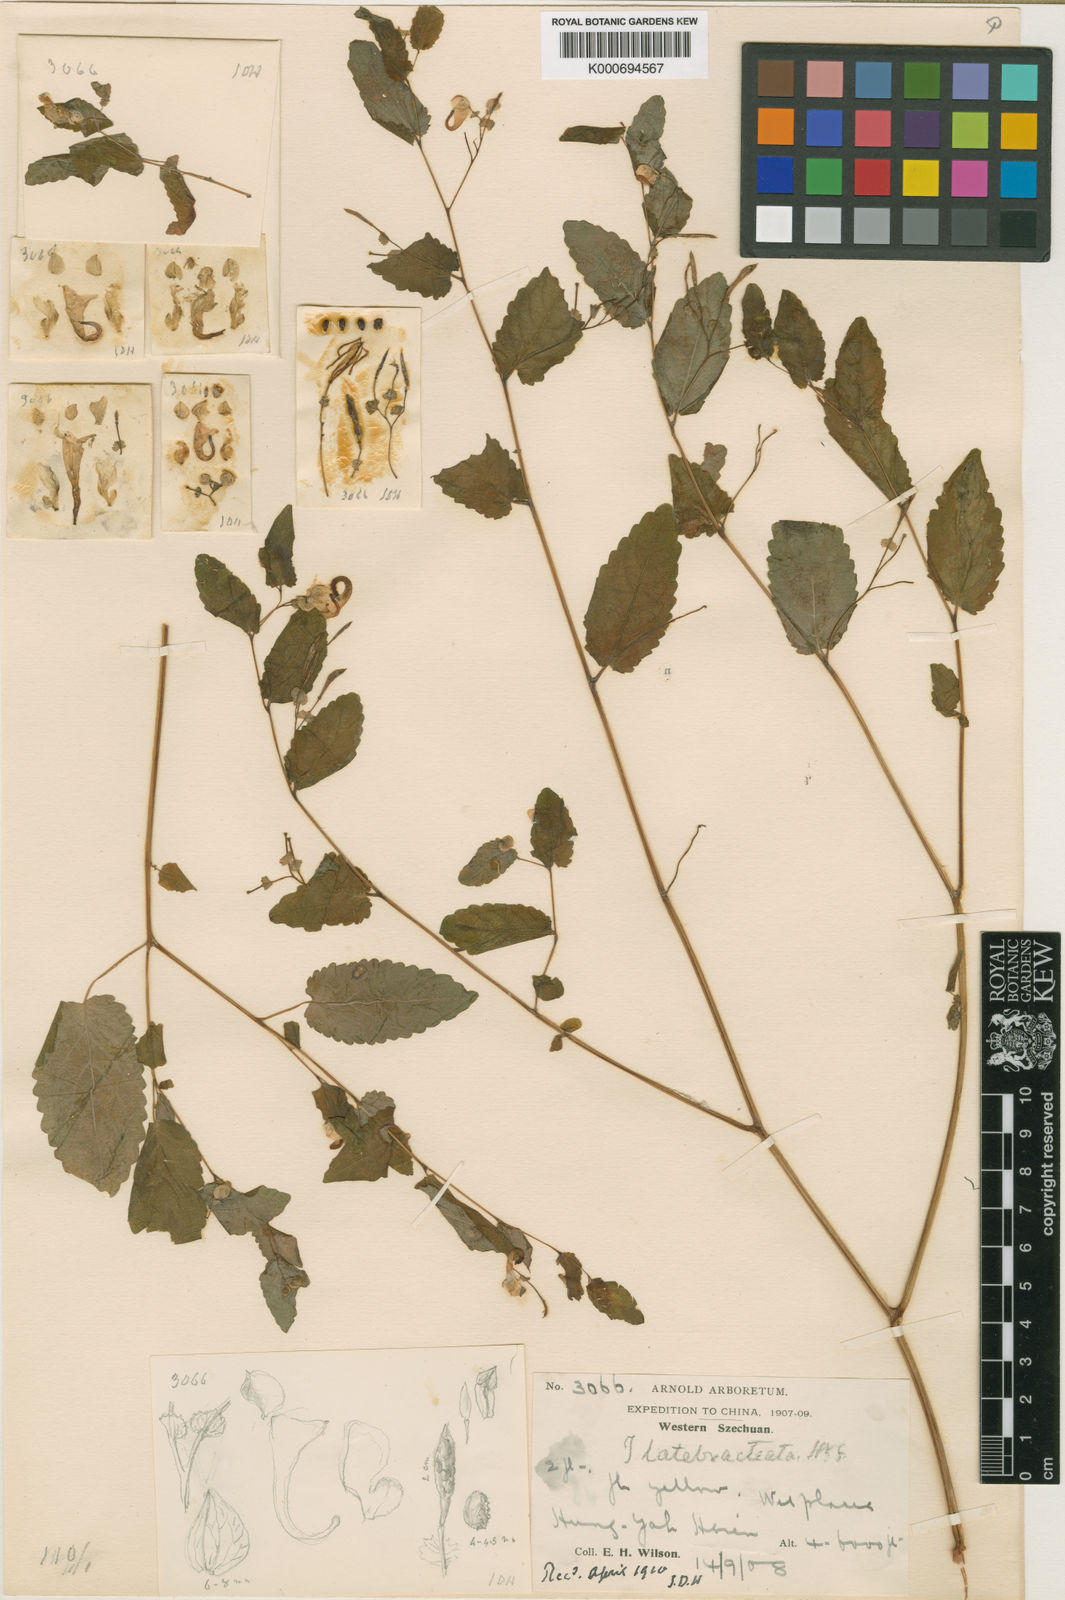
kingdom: Plantae
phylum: Tracheophyta
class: Magnoliopsida
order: Ericales
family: Balsaminaceae
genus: Impatiens
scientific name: Impatiens latebracteata
